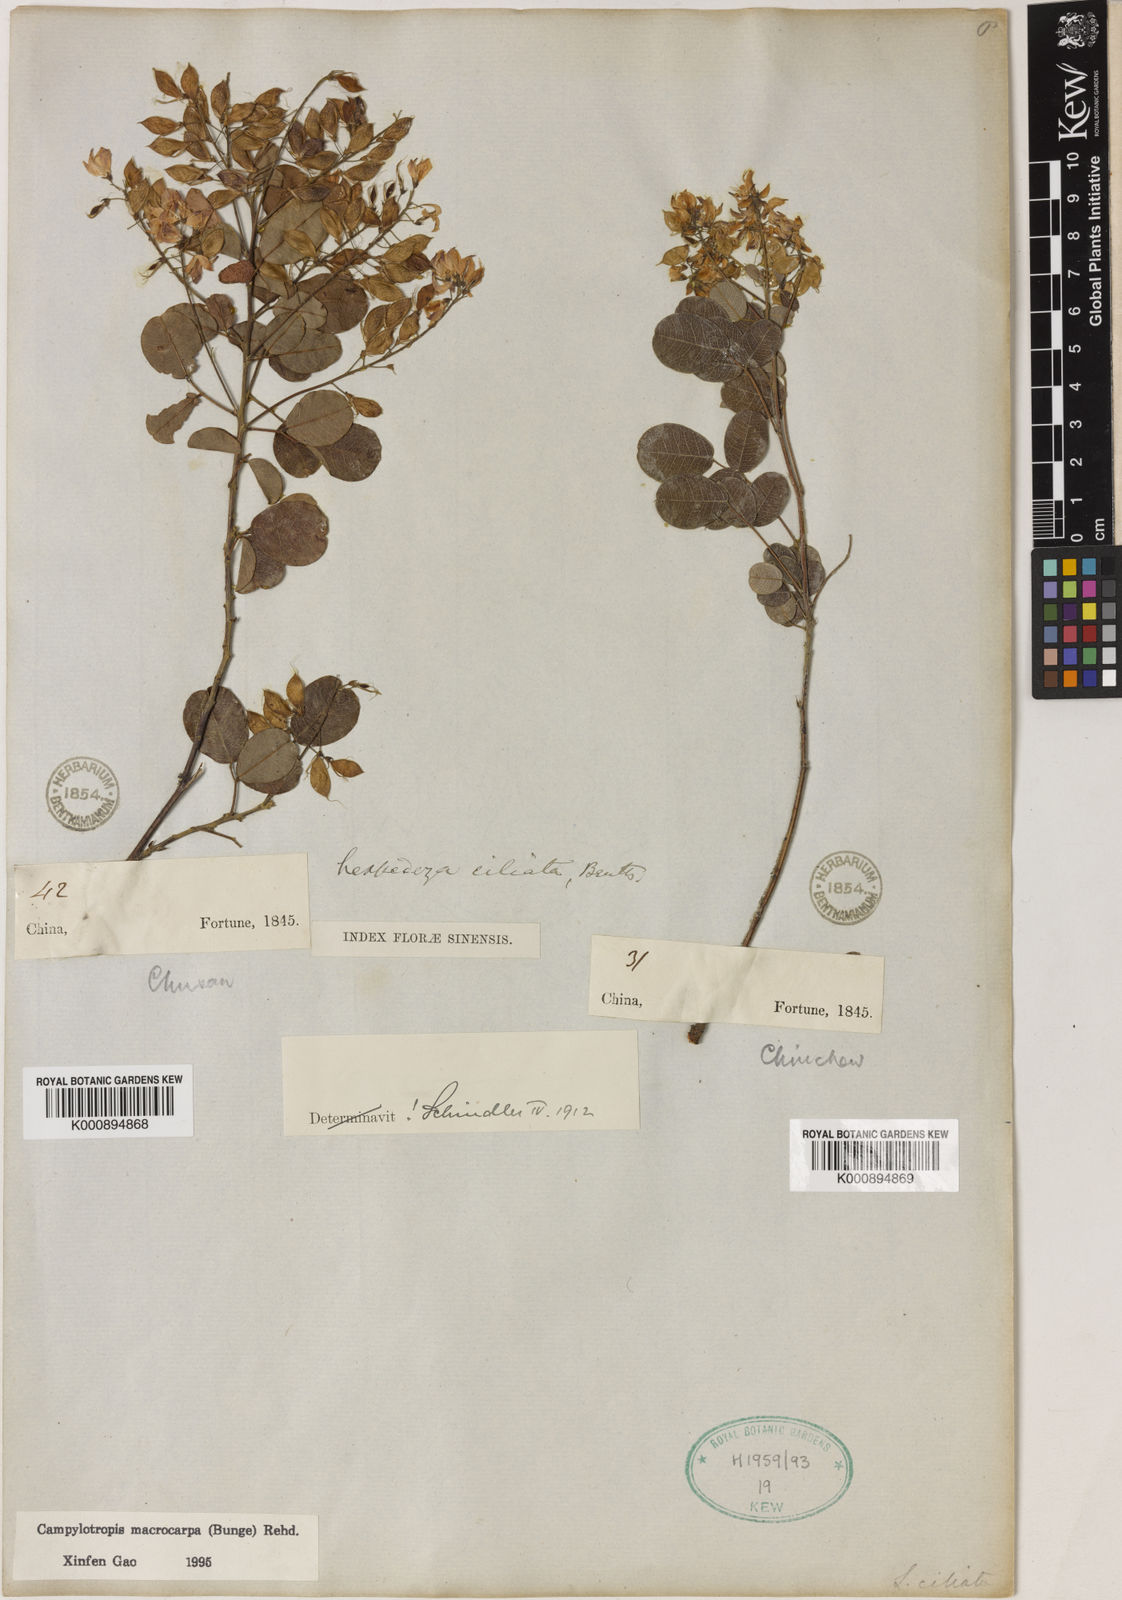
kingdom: Plantae
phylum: Tracheophyta
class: Magnoliopsida
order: Fabales
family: Fabaceae
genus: Campylotropis
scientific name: Campylotropis macrocarpa
